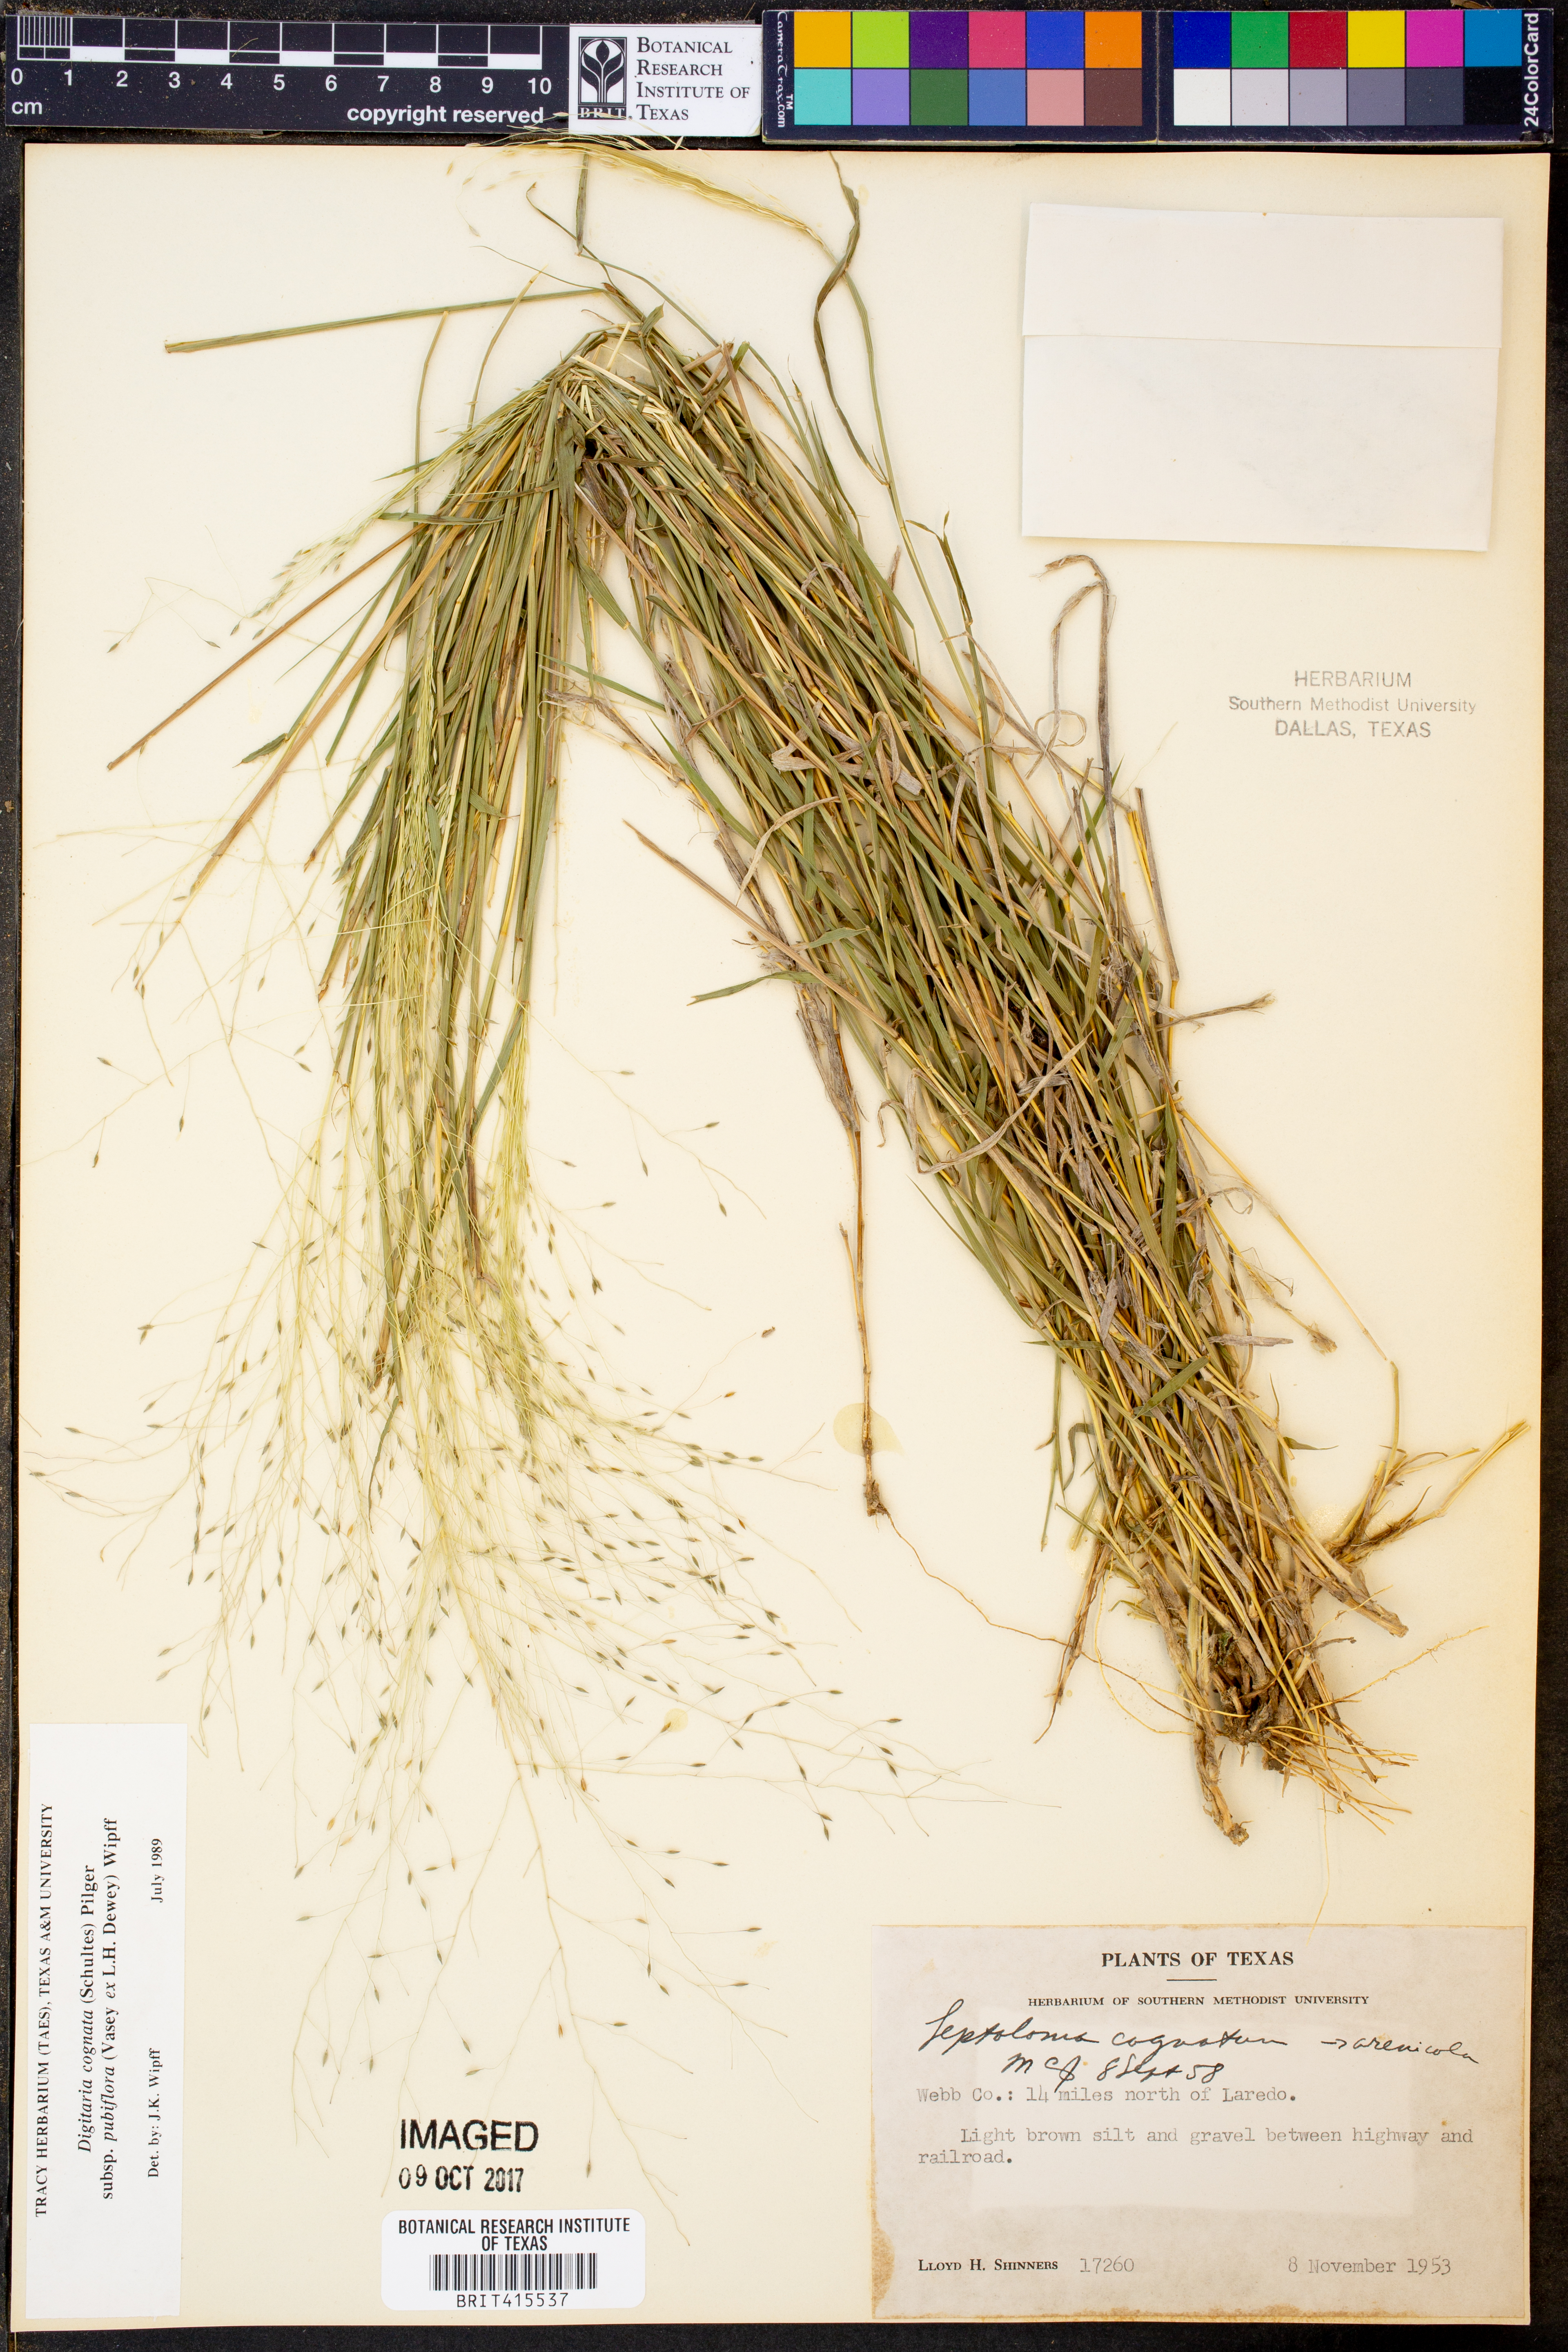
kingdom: Plantae
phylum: Tracheophyta
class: Liliopsida
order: Poales
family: Poaceae
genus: Digitaria
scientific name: Digitaria cognata
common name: Fall witchgrass
